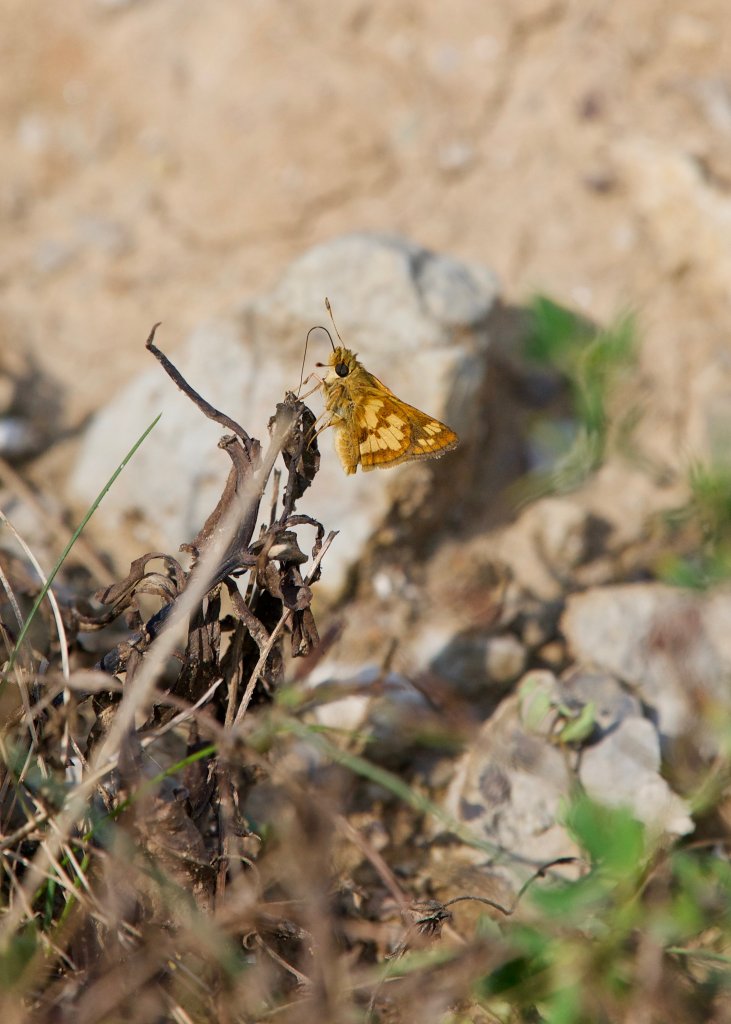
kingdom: Animalia
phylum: Arthropoda
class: Insecta
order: Lepidoptera
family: Hesperiidae
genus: Polites
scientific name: Polites coras
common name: Peck's Skipper
